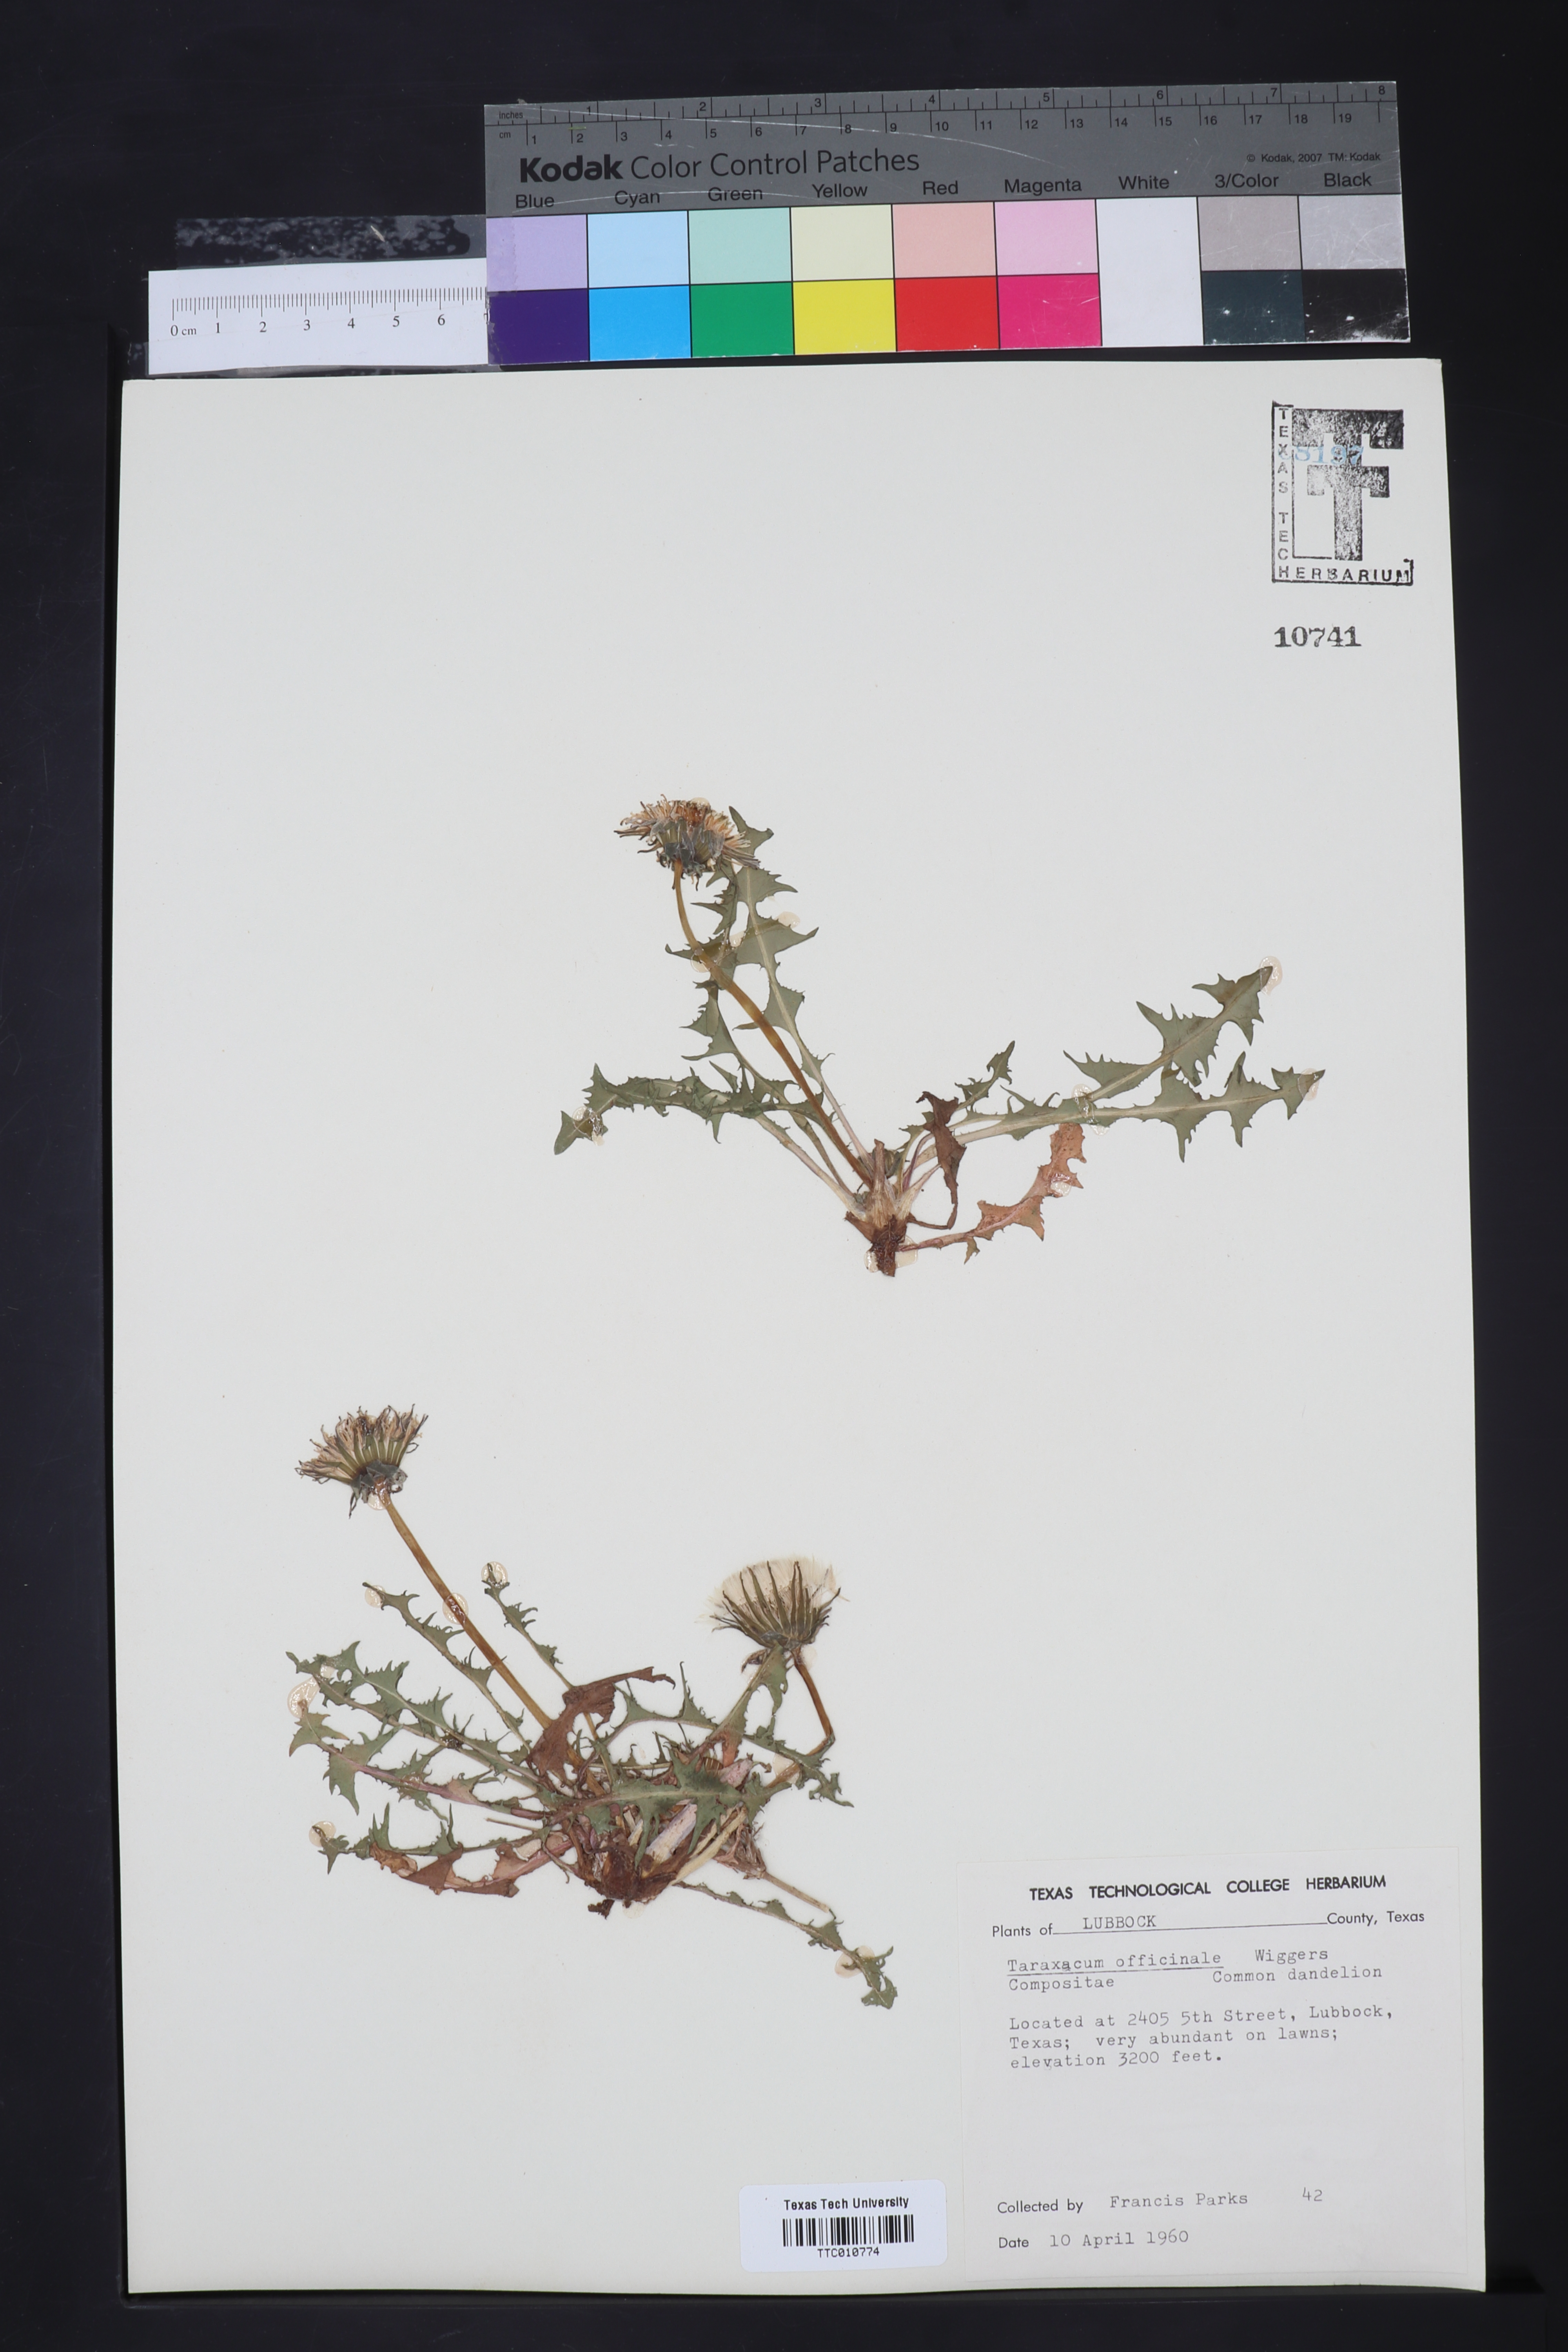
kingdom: Plantae
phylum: Tracheophyta
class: Magnoliopsida
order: Asterales
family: Asteraceae
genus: Taraxacum
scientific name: Taraxacum officinale
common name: Common dandelion
